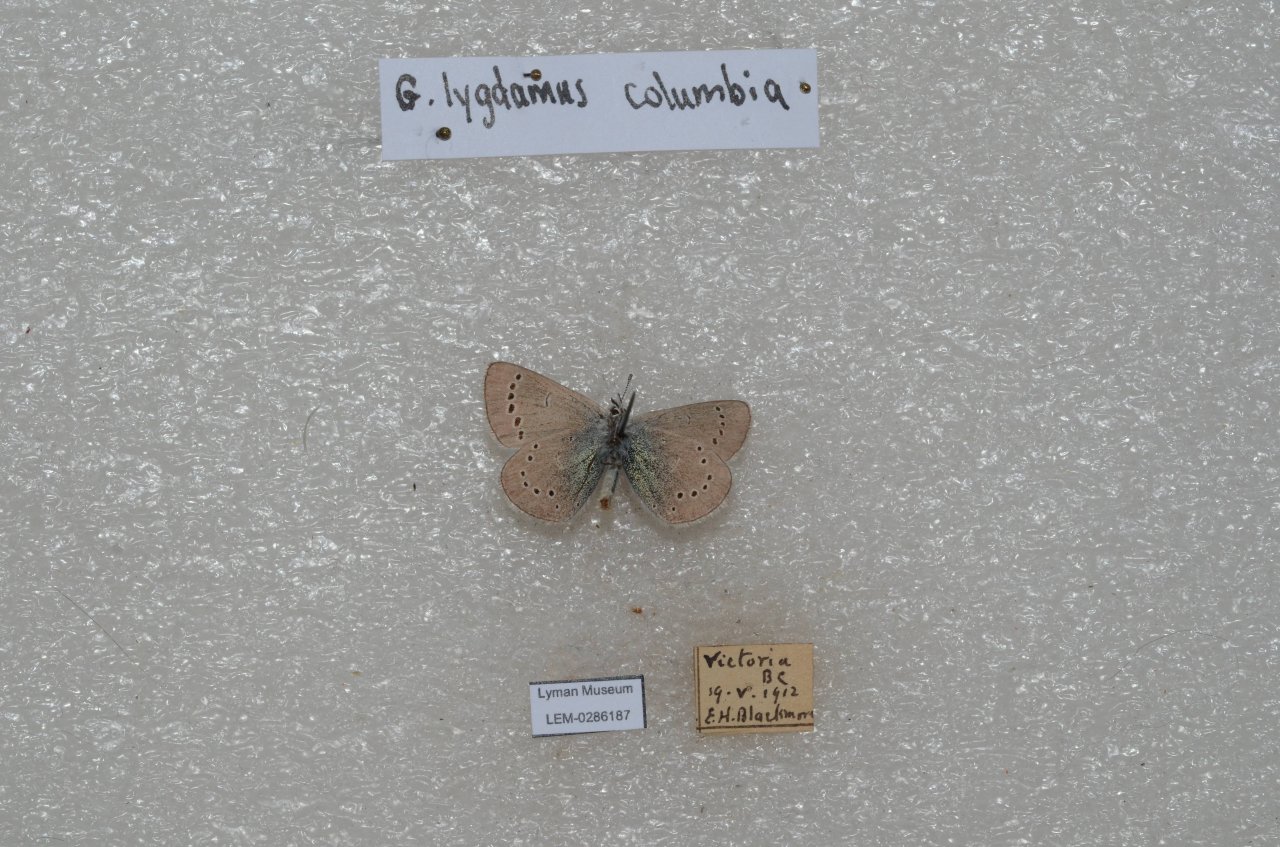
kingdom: Animalia
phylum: Arthropoda
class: Insecta
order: Lepidoptera
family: Lycaenidae
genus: Glaucopsyche
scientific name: Glaucopsyche lygdamus
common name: Silvery Blue
